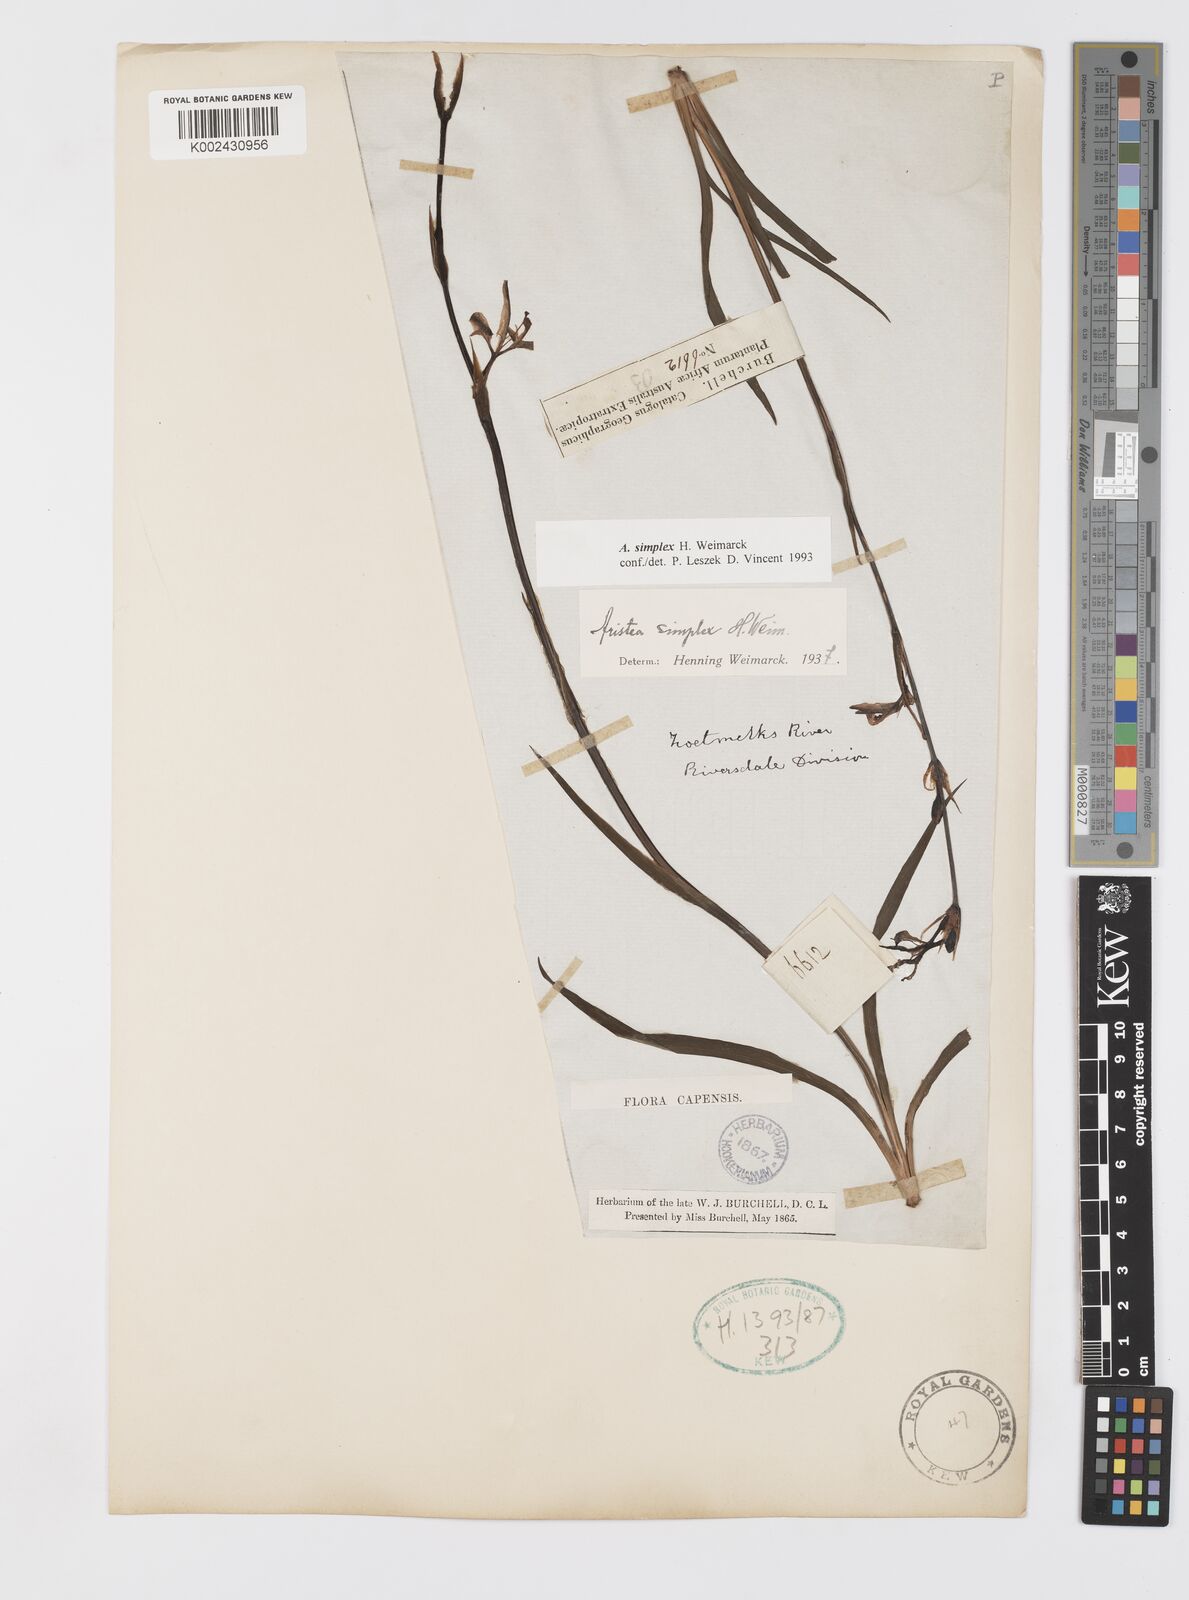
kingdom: Plantae
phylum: Tracheophyta
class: Liliopsida
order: Asparagales
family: Iridaceae
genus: Aristea
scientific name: Aristea simplex
